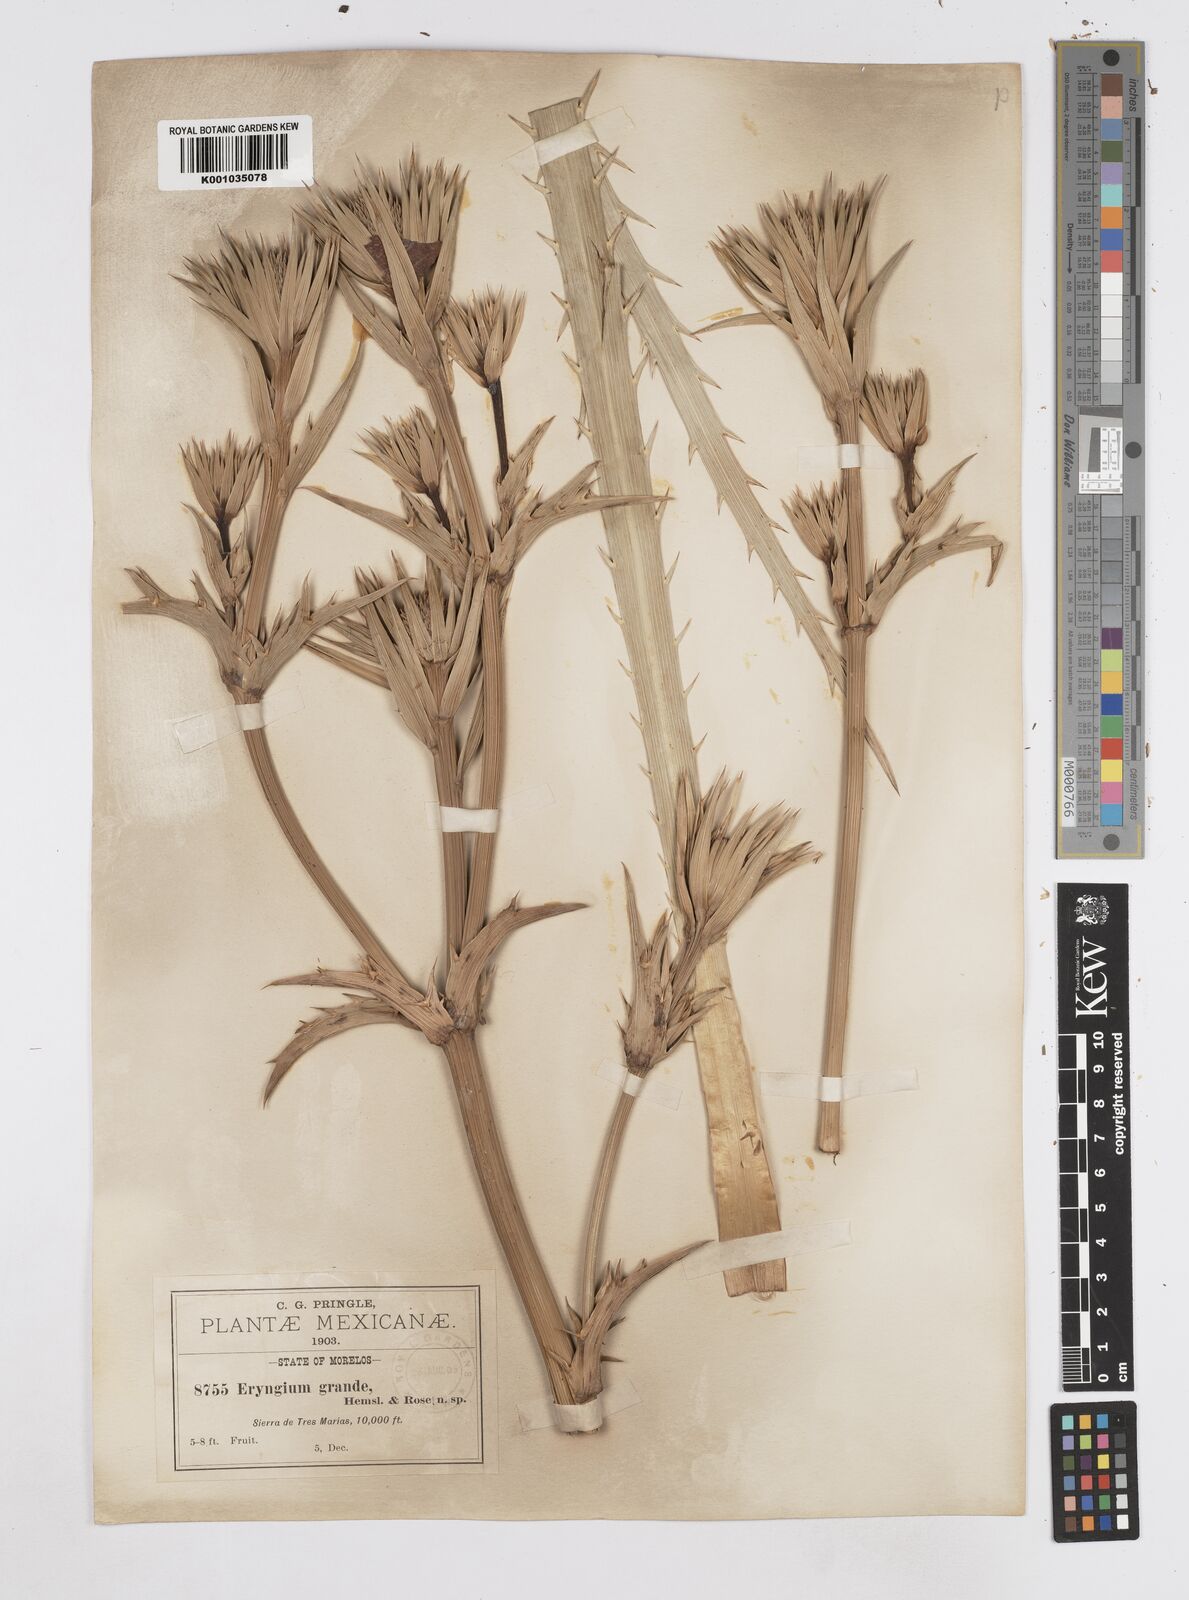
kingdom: Plantae
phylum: Tracheophyta
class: Magnoliopsida
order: Apiales
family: Apiaceae
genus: Eryngium
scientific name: Eryngium monocephalum
